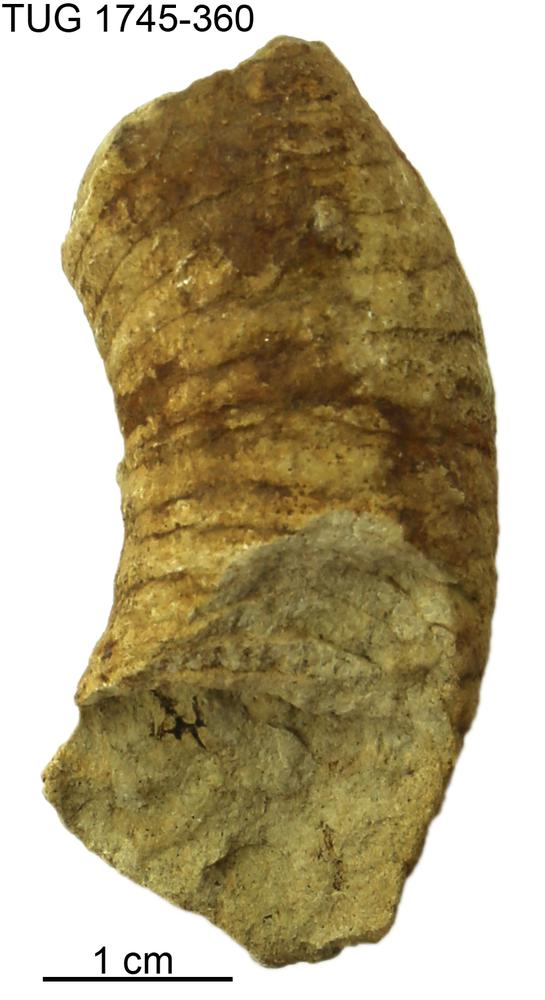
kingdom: Animalia
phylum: Mollusca
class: Cephalopoda
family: Tarphyceratidae
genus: Rectanguloceras
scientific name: Rectanguloceras
